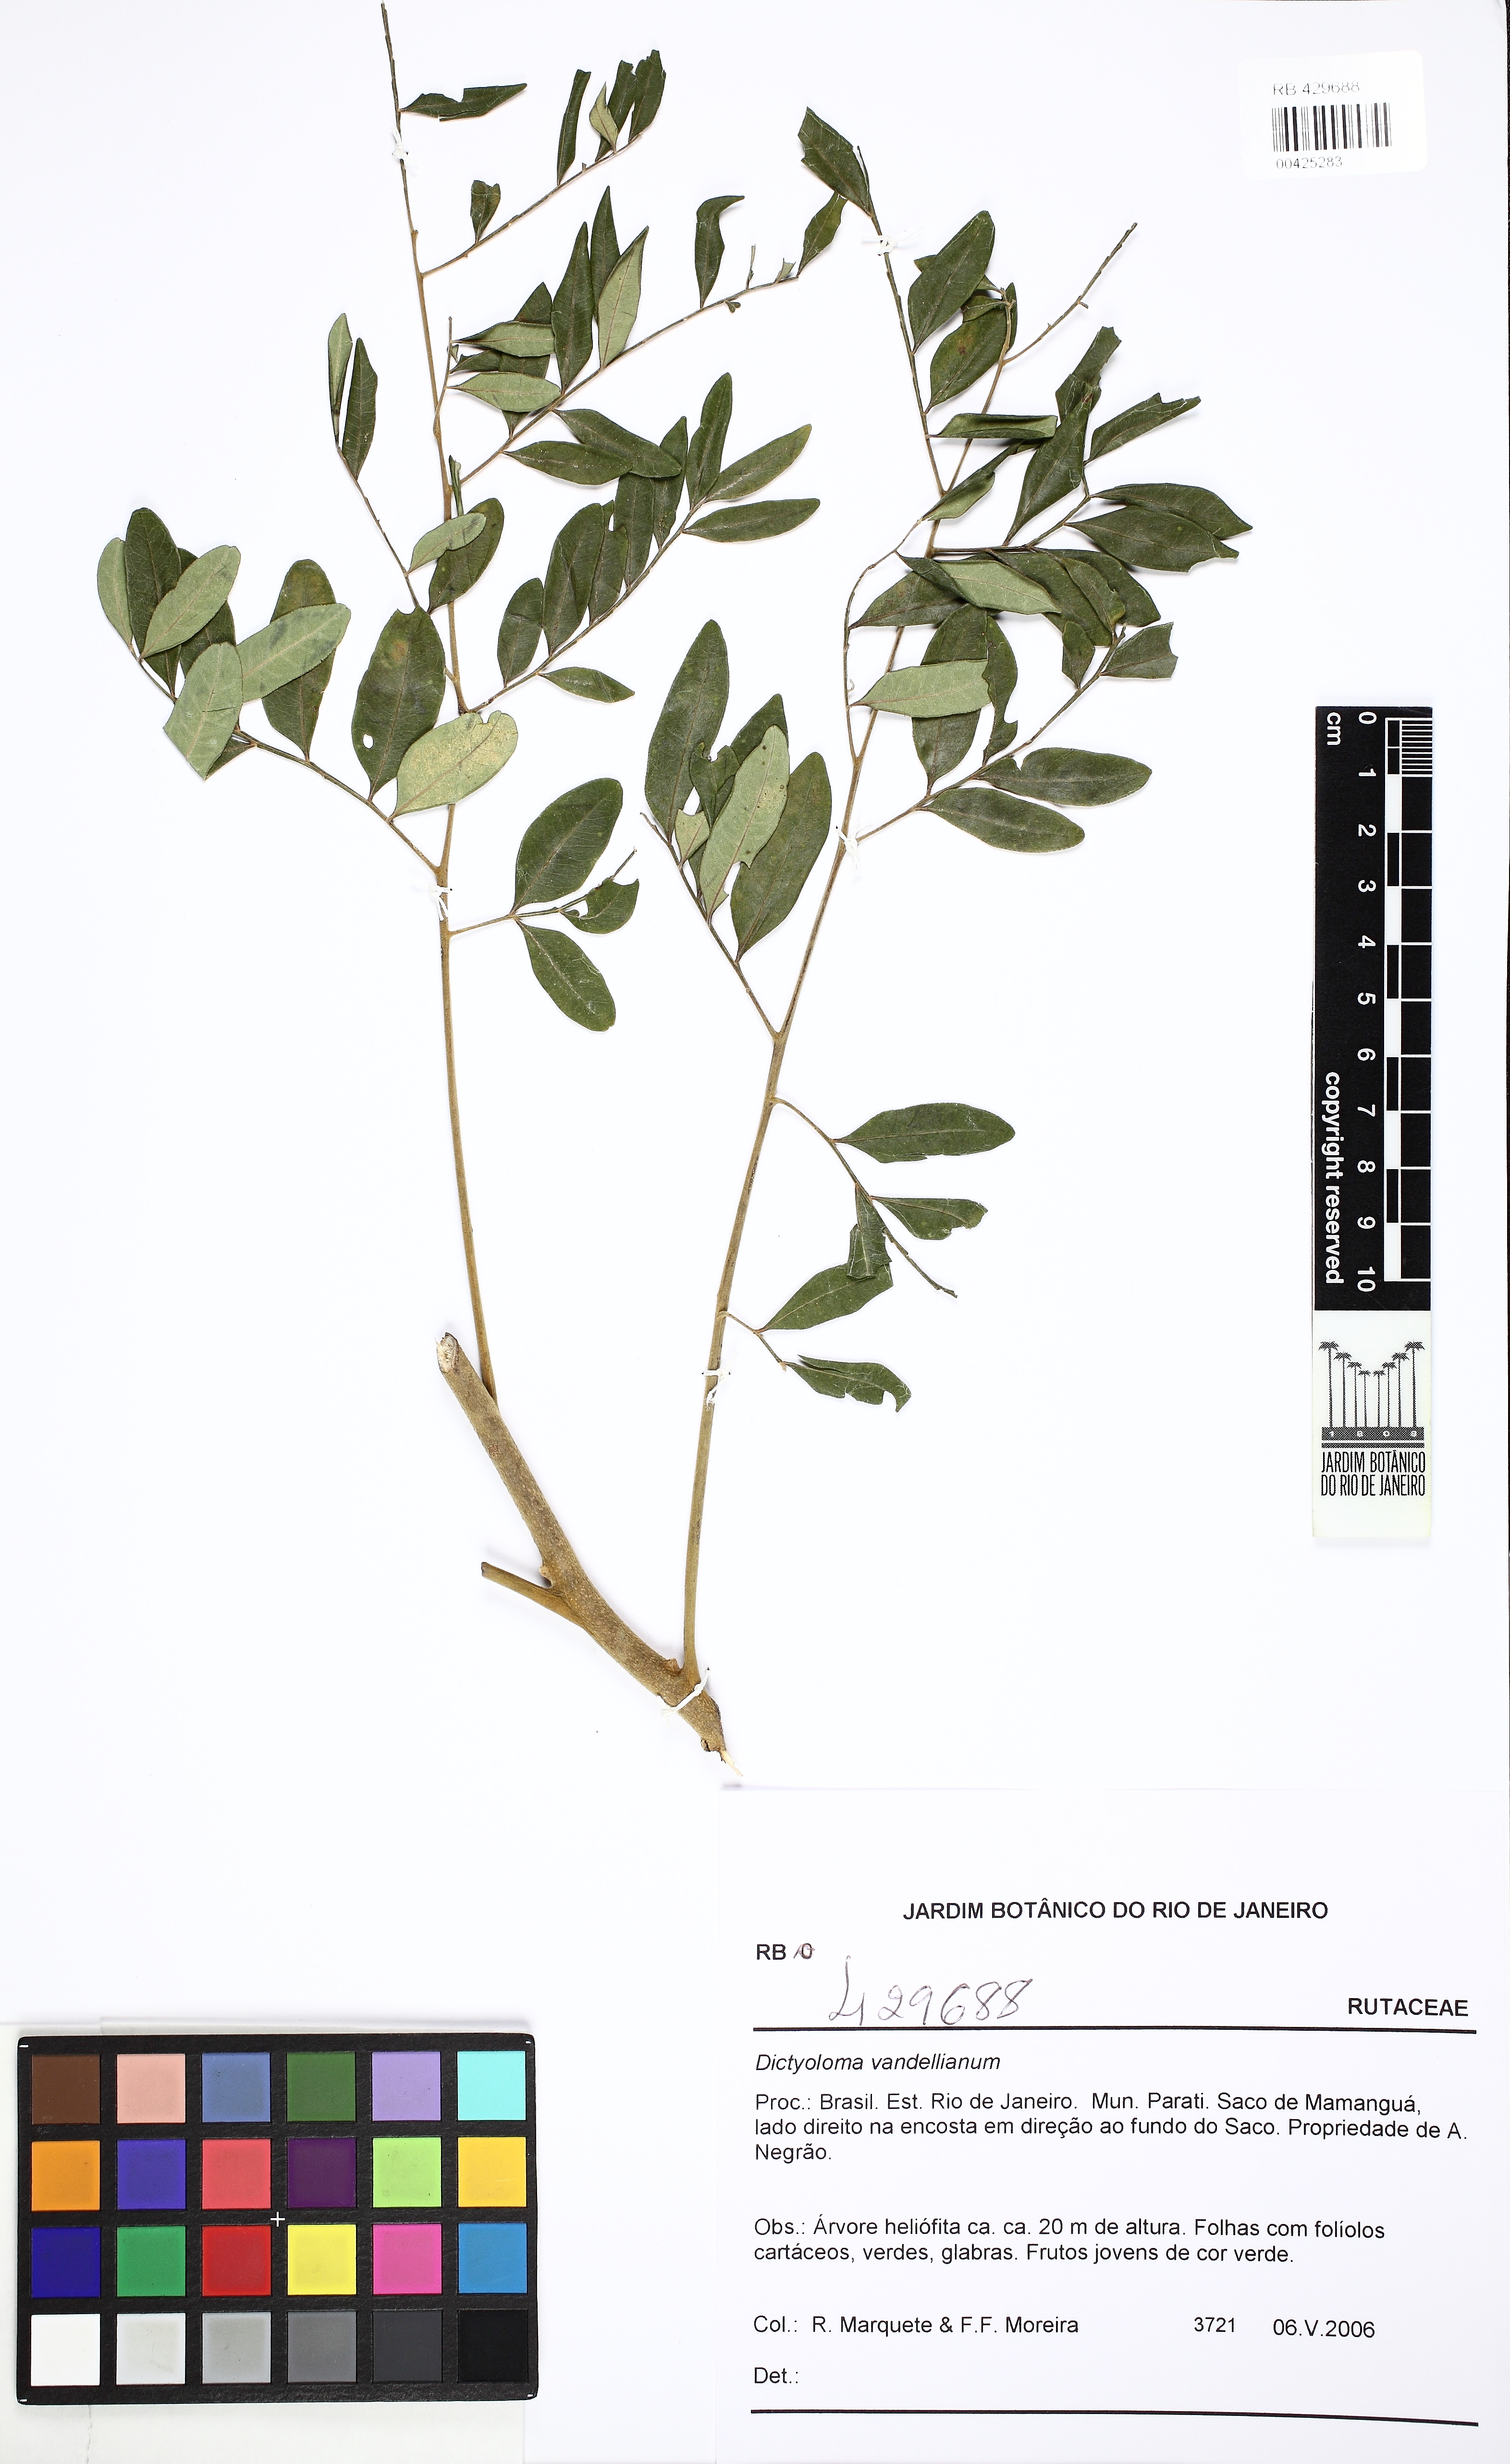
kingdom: Plantae
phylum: Tracheophyta
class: Magnoliopsida
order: Sapindales
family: Rutaceae
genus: Dictyoloma
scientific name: Dictyoloma vandellianum
